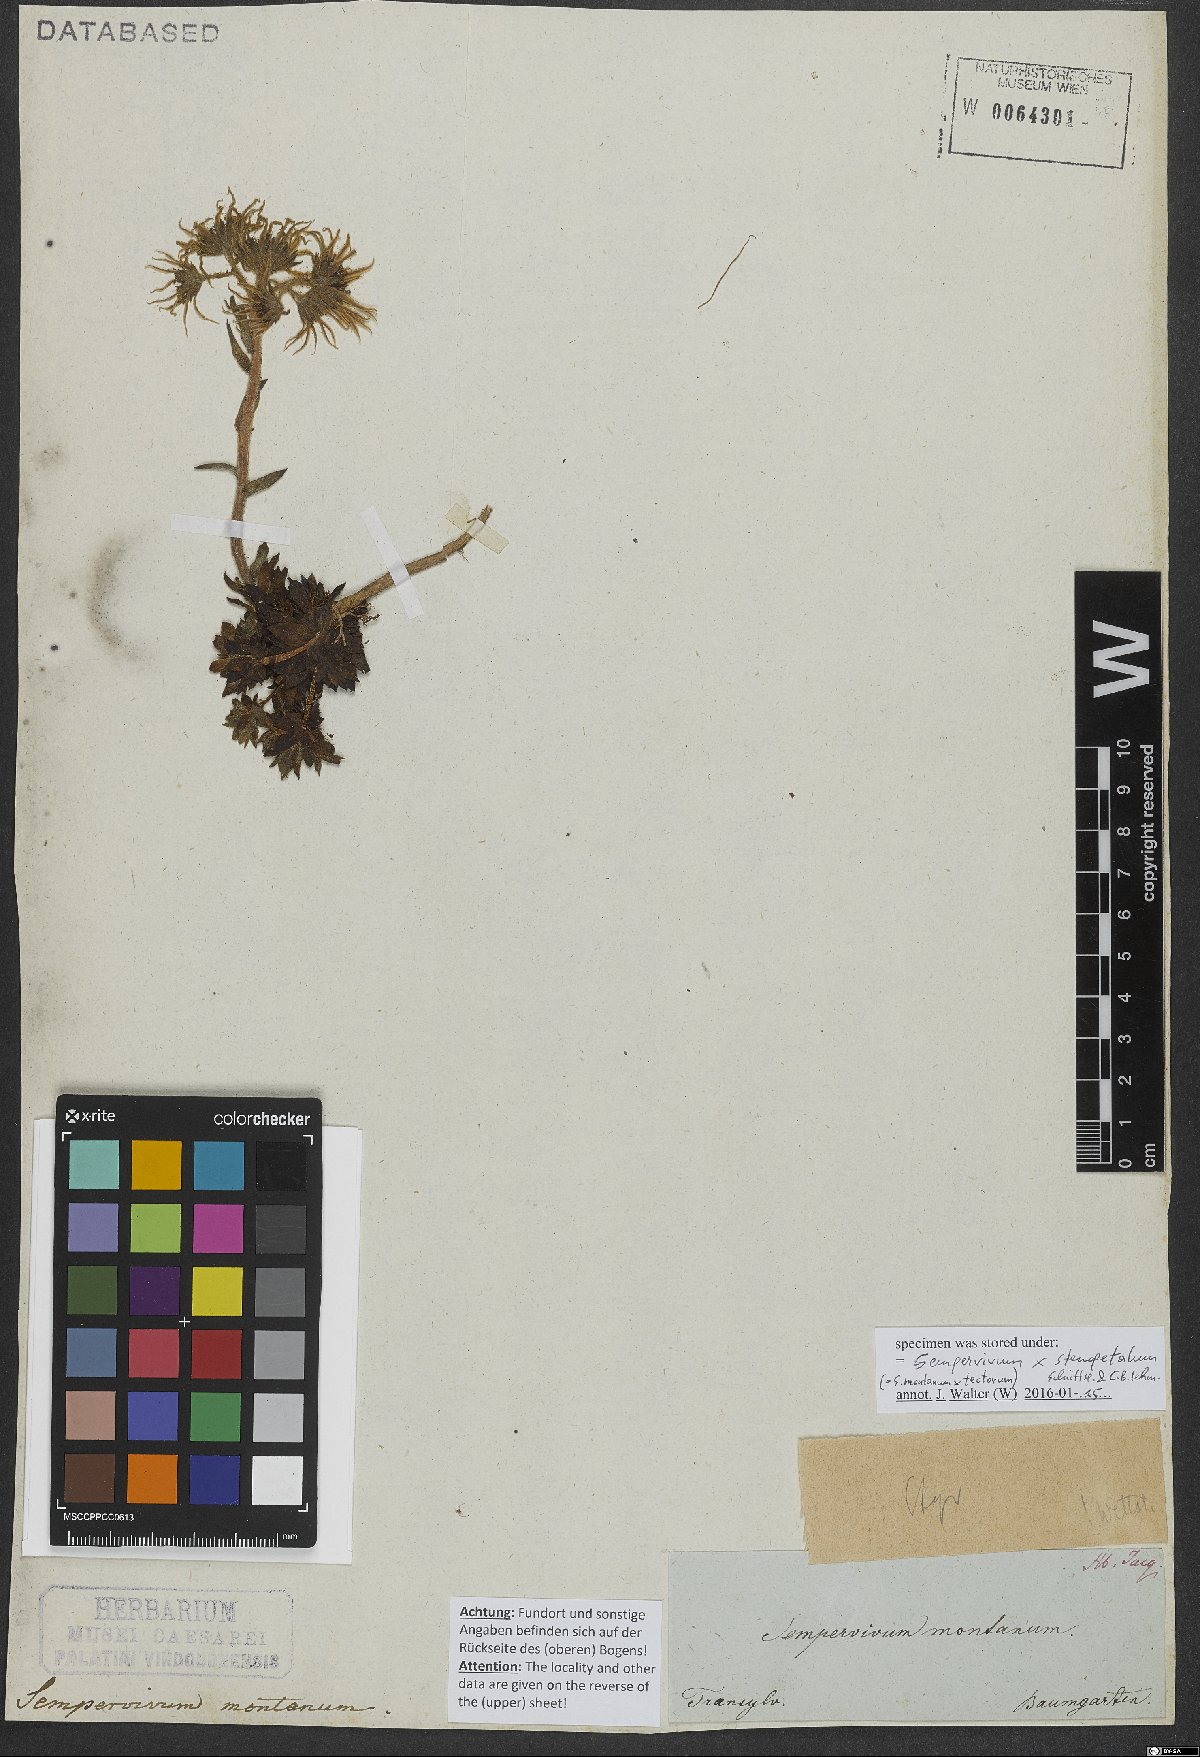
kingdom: Plantae
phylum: Tracheophyta
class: Magnoliopsida
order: Saxifragales
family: Crassulaceae
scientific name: Crassulaceae
